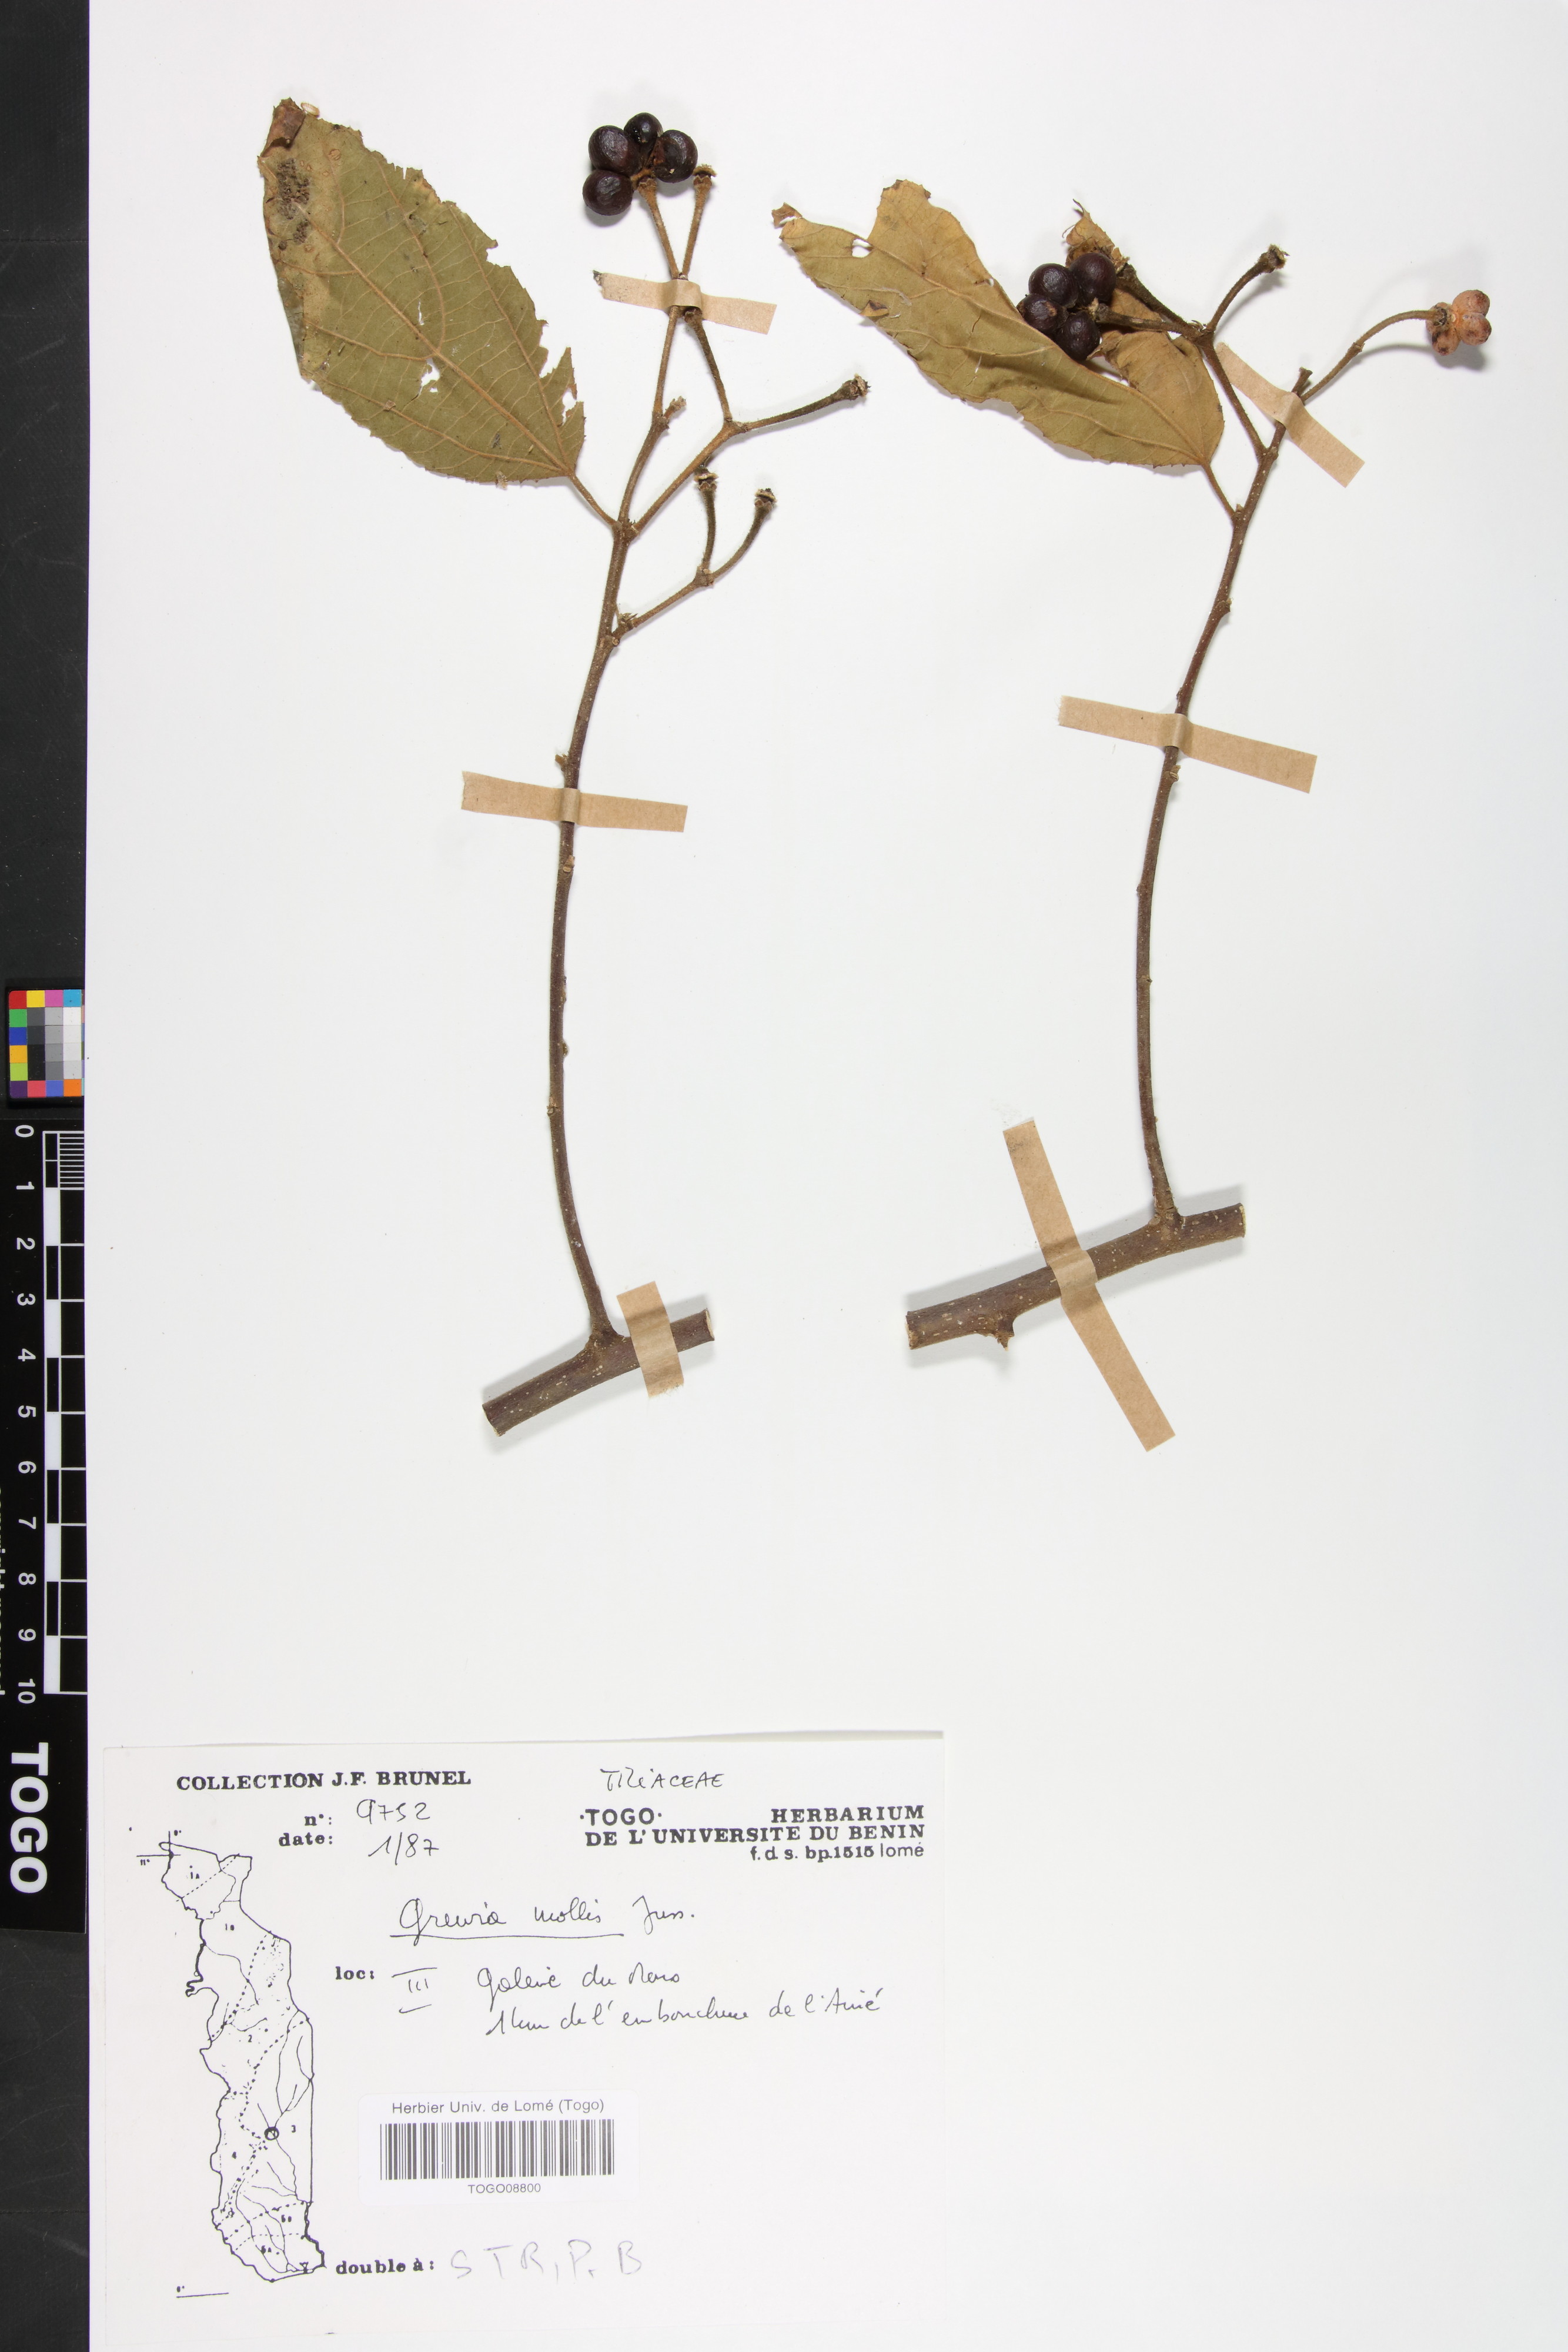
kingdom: Plantae
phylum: Tracheophyta
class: Magnoliopsida
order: Malvales
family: Malvaceae
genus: Grewia
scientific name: Grewia mollis
